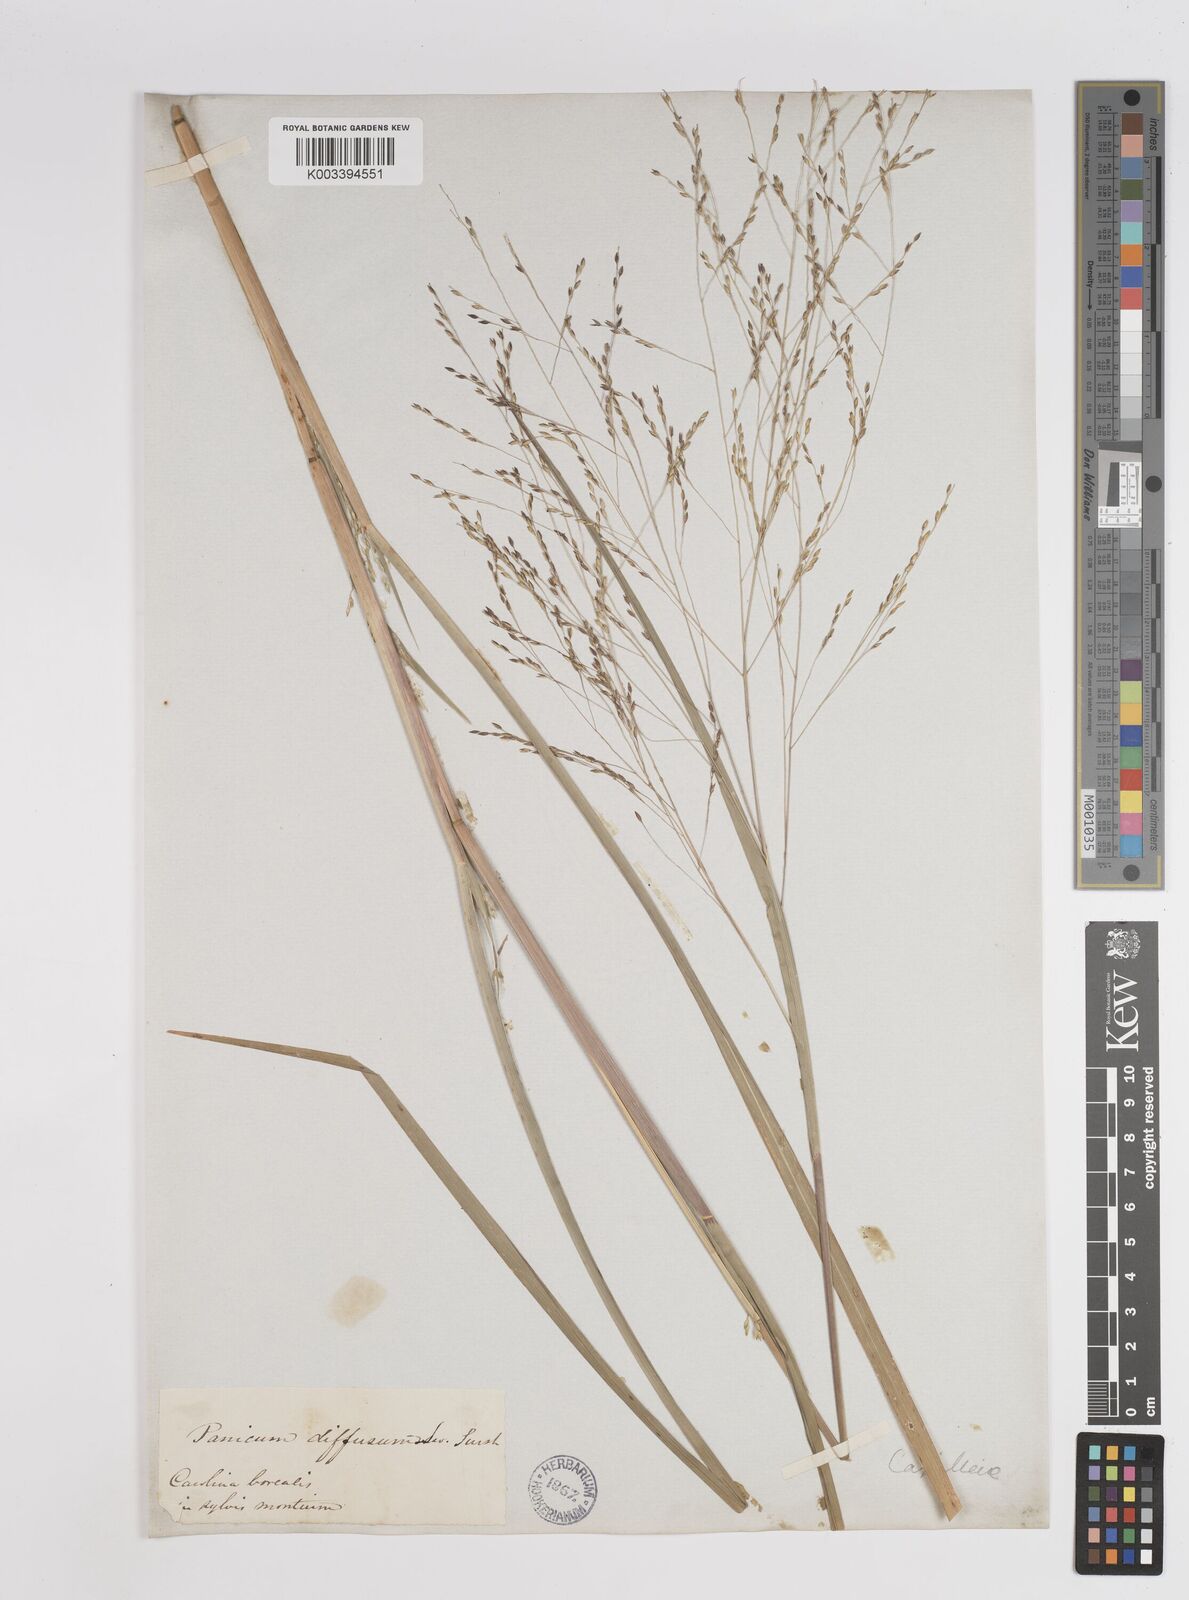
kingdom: Plantae
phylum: Tracheophyta
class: Liliopsida
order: Poales
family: Poaceae
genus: Panicum
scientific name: Panicum bartowense
